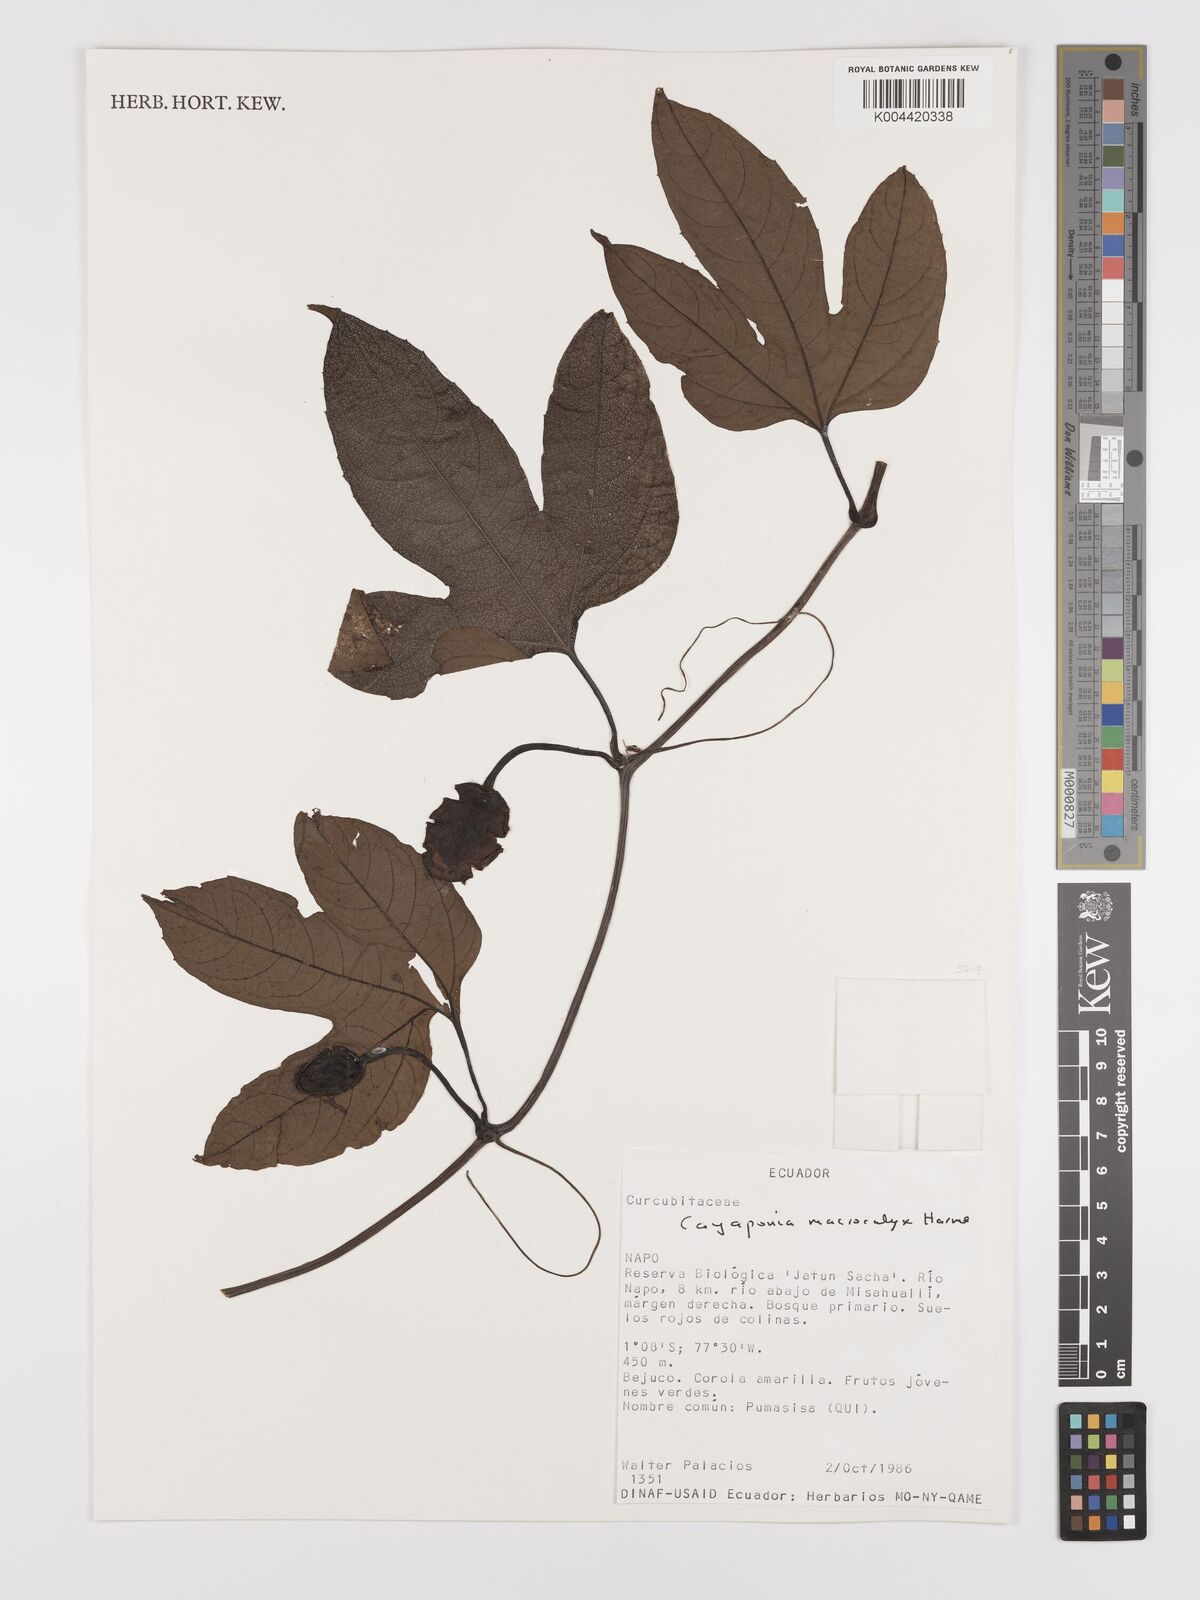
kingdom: Plantae
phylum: Tracheophyta
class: Magnoliopsida
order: Cucurbitales
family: Cucurbitaceae
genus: Cayaponia
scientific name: Cayaponia macrocalyx
